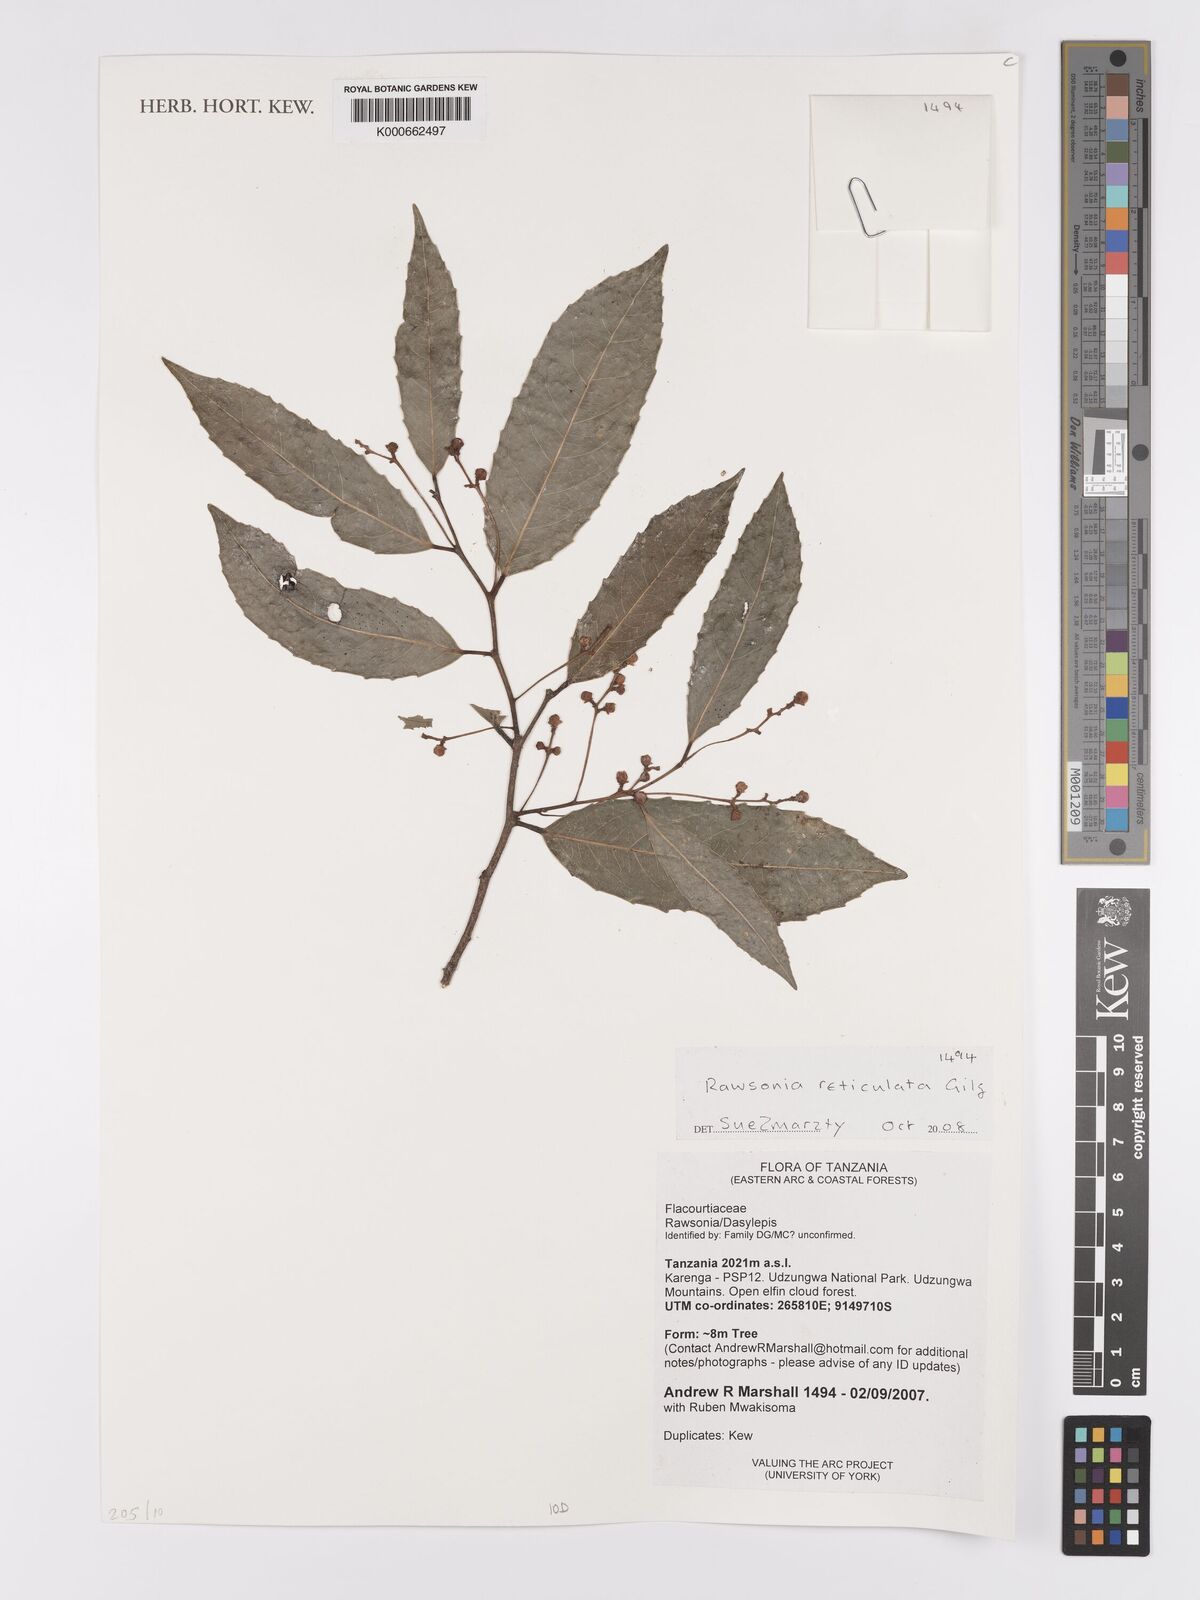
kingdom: Plantae
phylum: Tracheophyta
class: Magnoliopsida
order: Malpighiales
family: Achariaceae
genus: Rawsonia
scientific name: Rawsonia lucida
